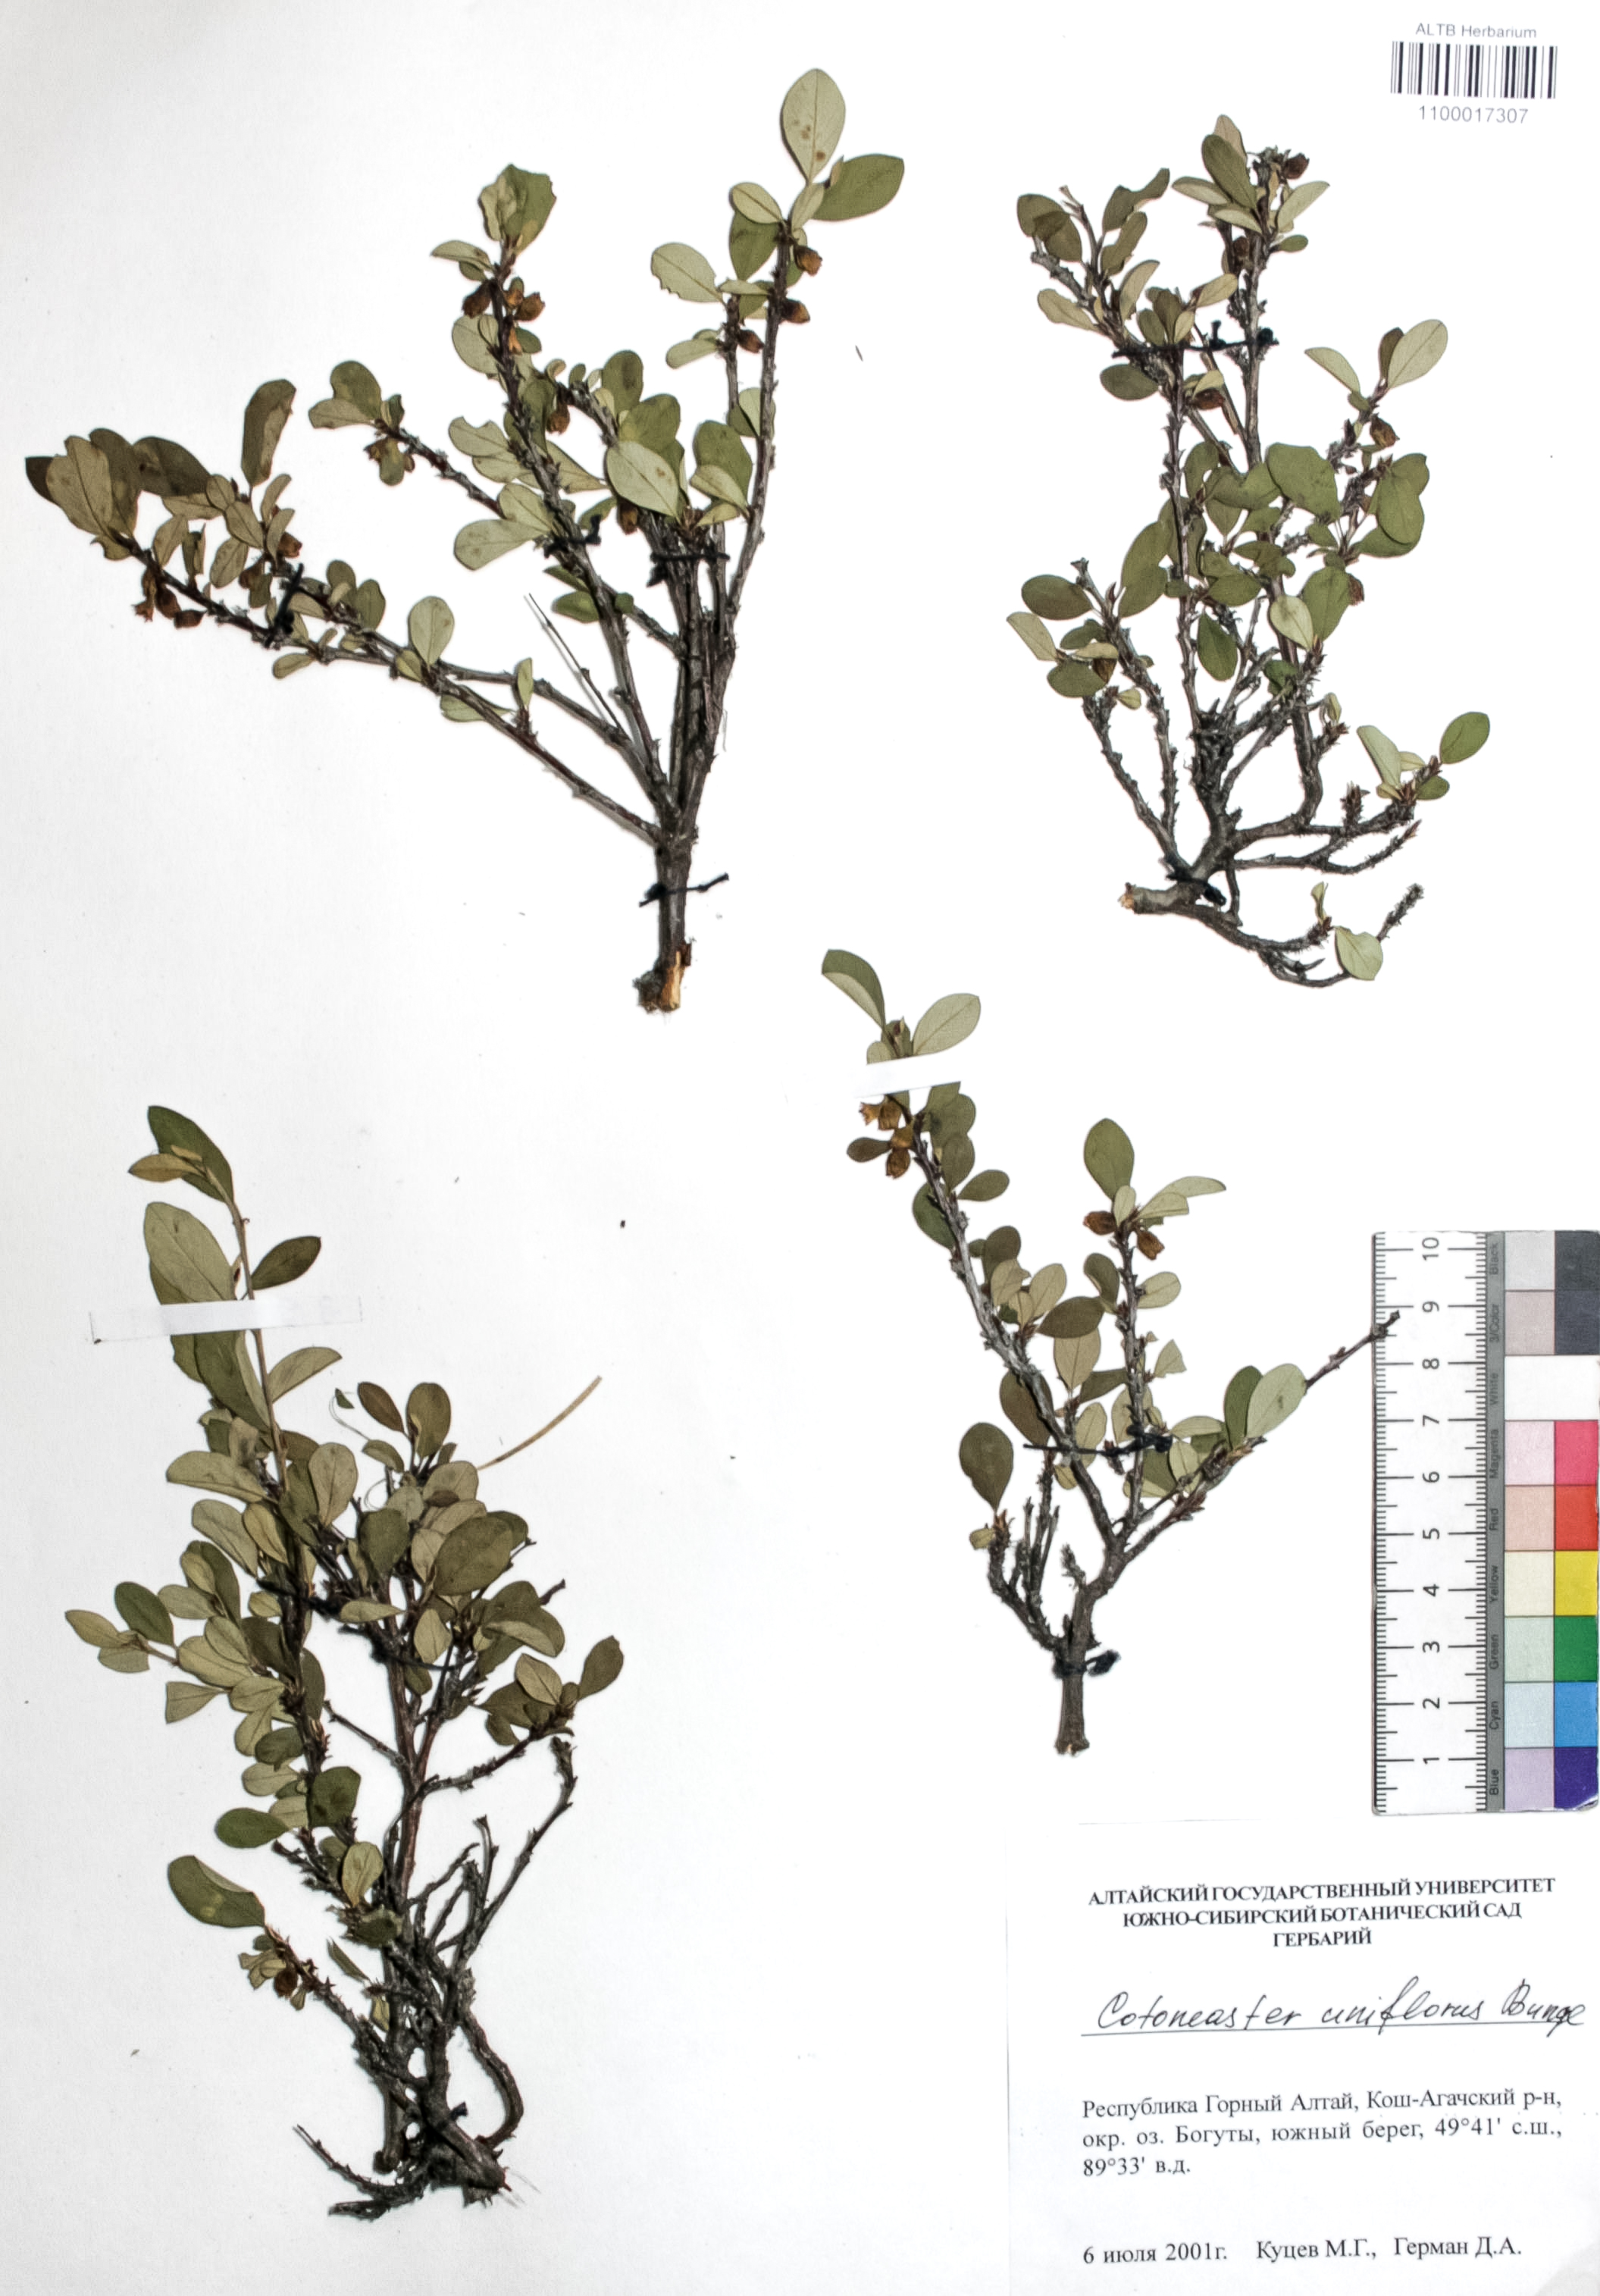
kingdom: Plantae
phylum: Tracheophyta
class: Magnoliopsida
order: Rosales
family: Rosaceae
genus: Cotoneaster
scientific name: Cotoneaster uniflorus
